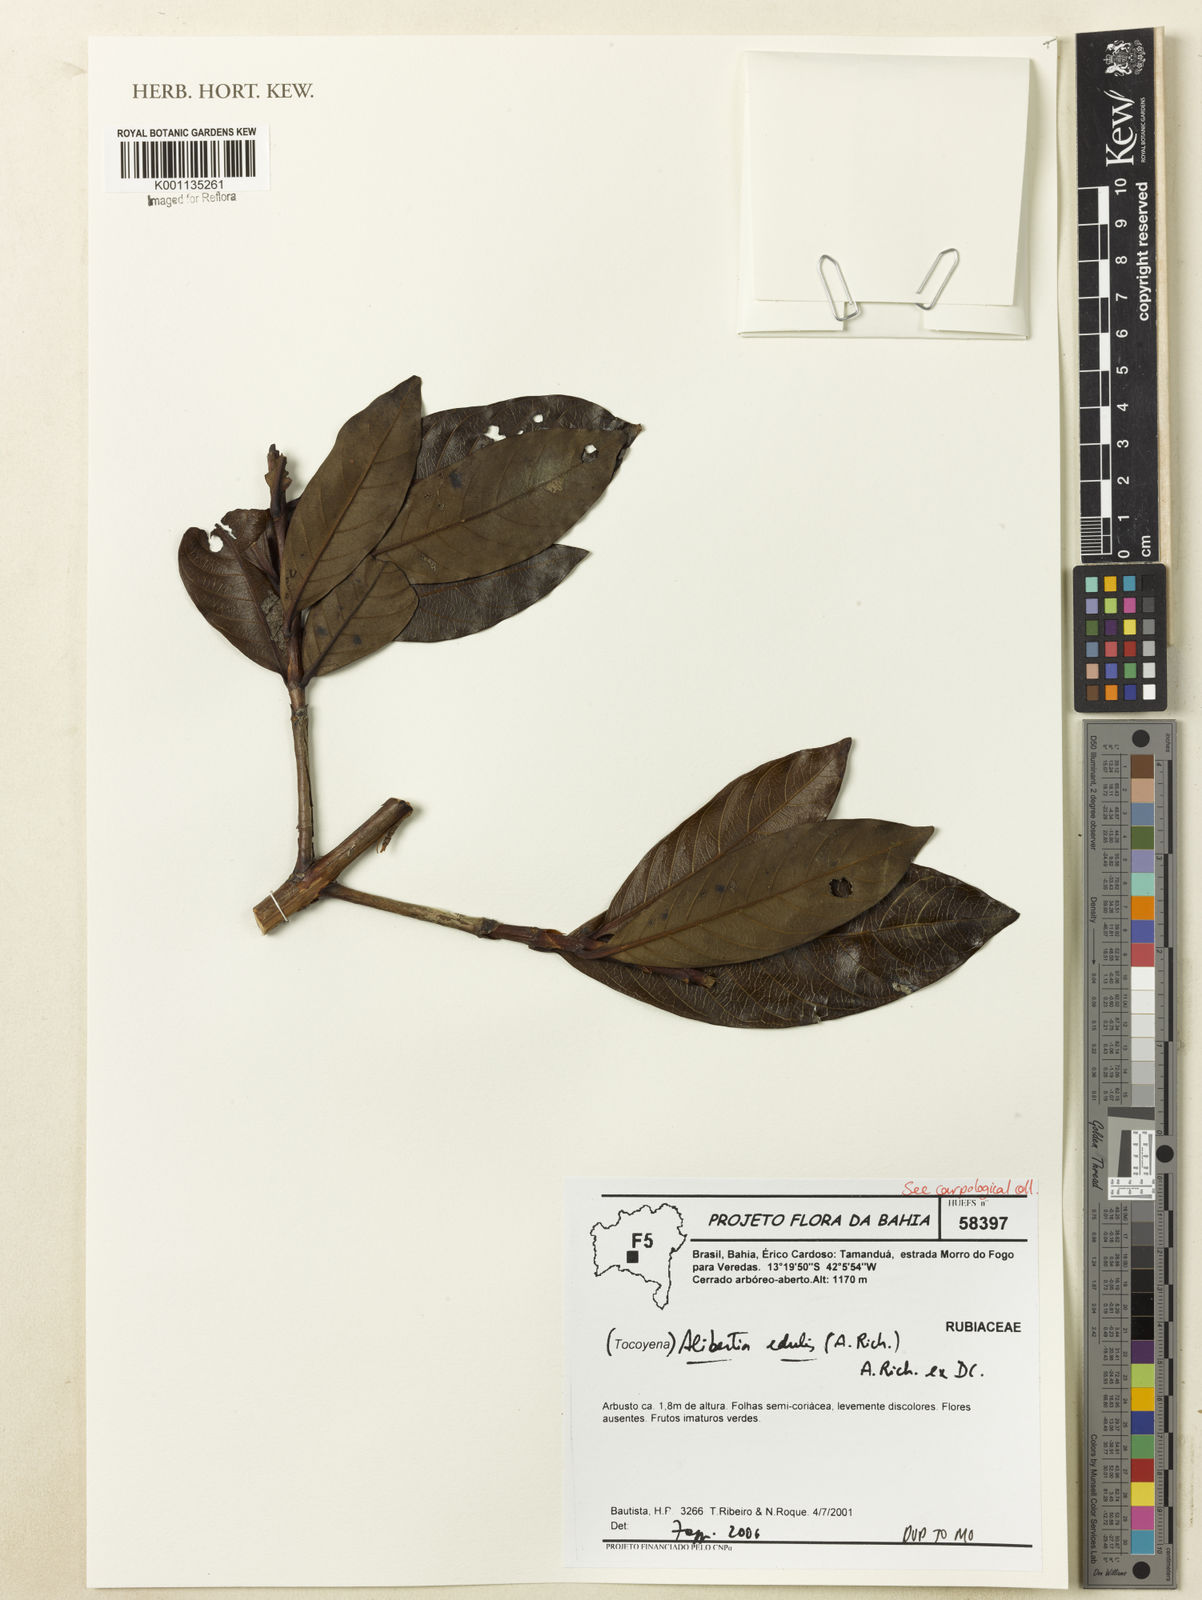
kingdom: Plantae
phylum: Tracheophyta
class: Magnoliopsida
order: Gentianales
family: Rubiaceae
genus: Alibertia
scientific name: Alibertia edulis
